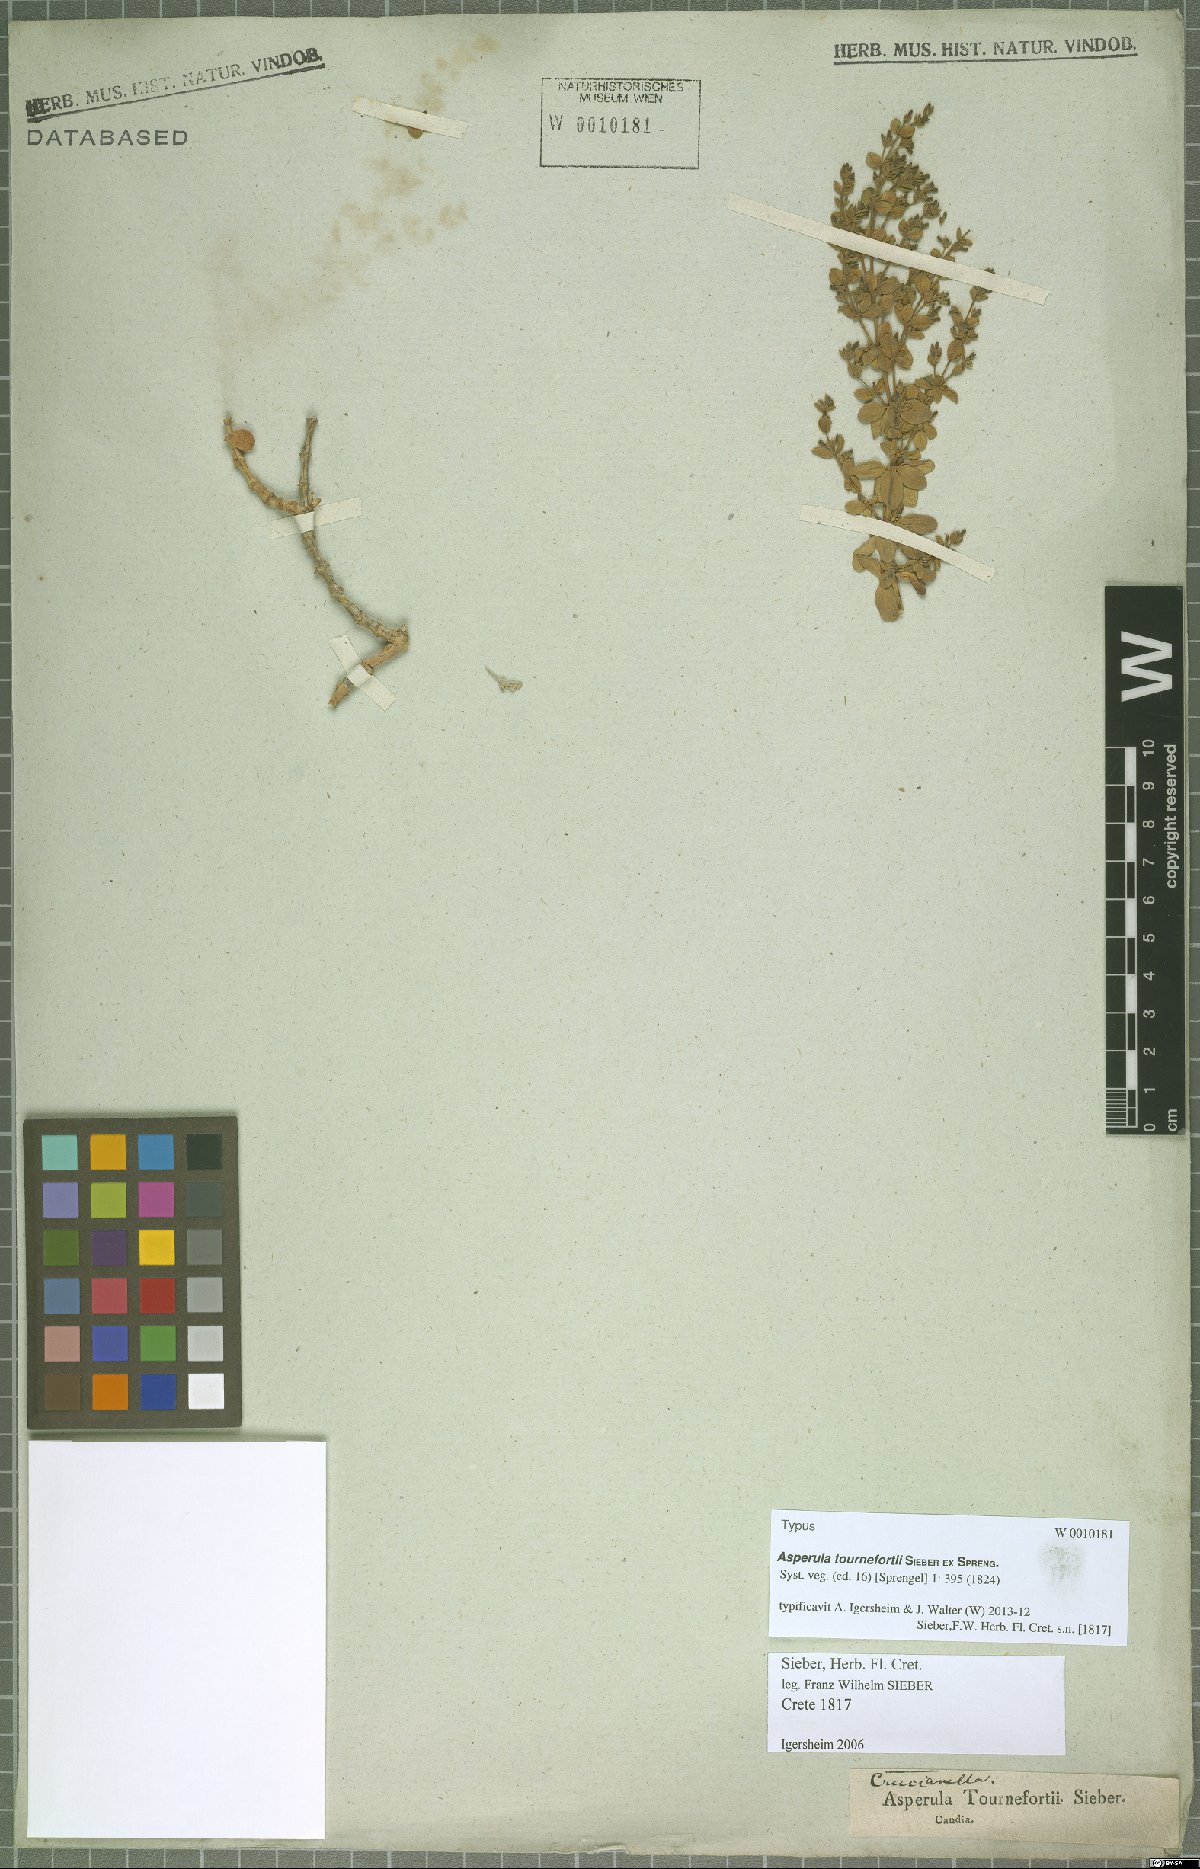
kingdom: Plantae
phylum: Tracheophyta
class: Magnoliopsida
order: Gentianales
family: Rubiaceae
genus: Asperula
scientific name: Asperula tournefortii
